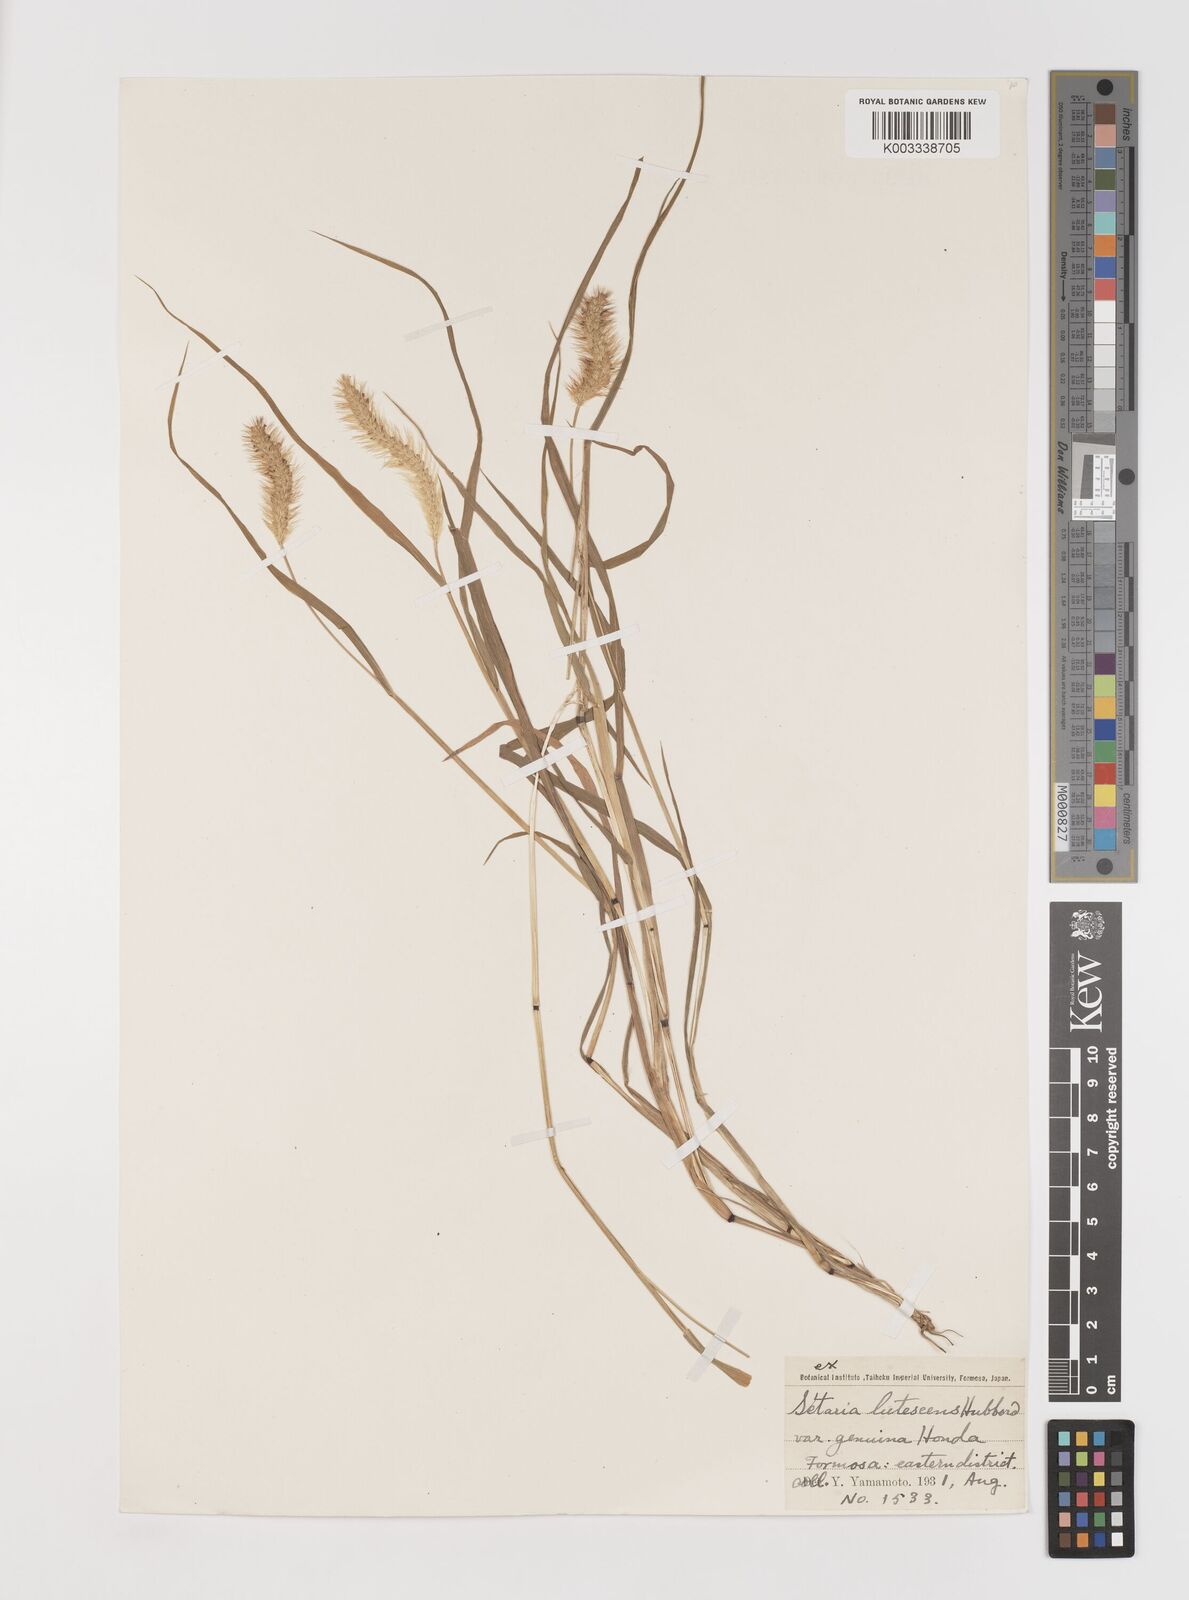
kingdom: Plantae
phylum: Tracheophyta
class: Liliopsida
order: Poales
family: Poaceae
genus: Setaria
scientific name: Setaria parviflora
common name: Knotroot bristle-grass
